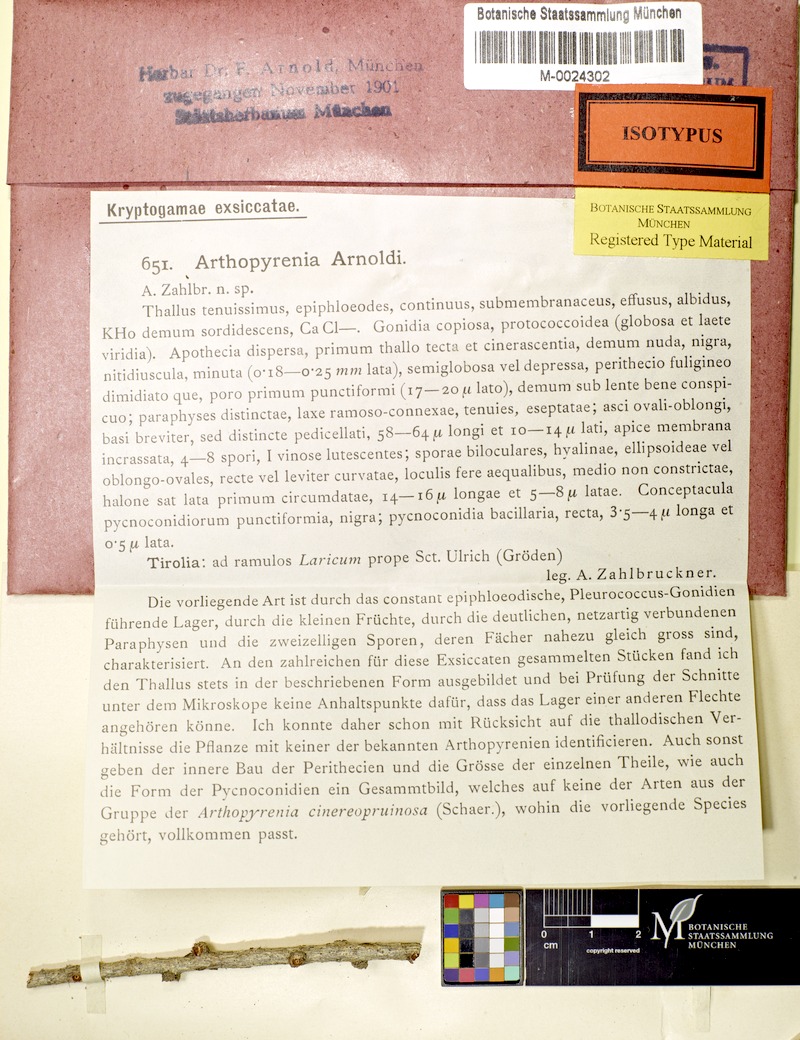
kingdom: Fungi
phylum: Ascomycota
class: Dothideomycetes
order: Pleosporales
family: Arthopyreniaceae
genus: Arthopyrenia
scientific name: Arthopyrenia arnoldii
